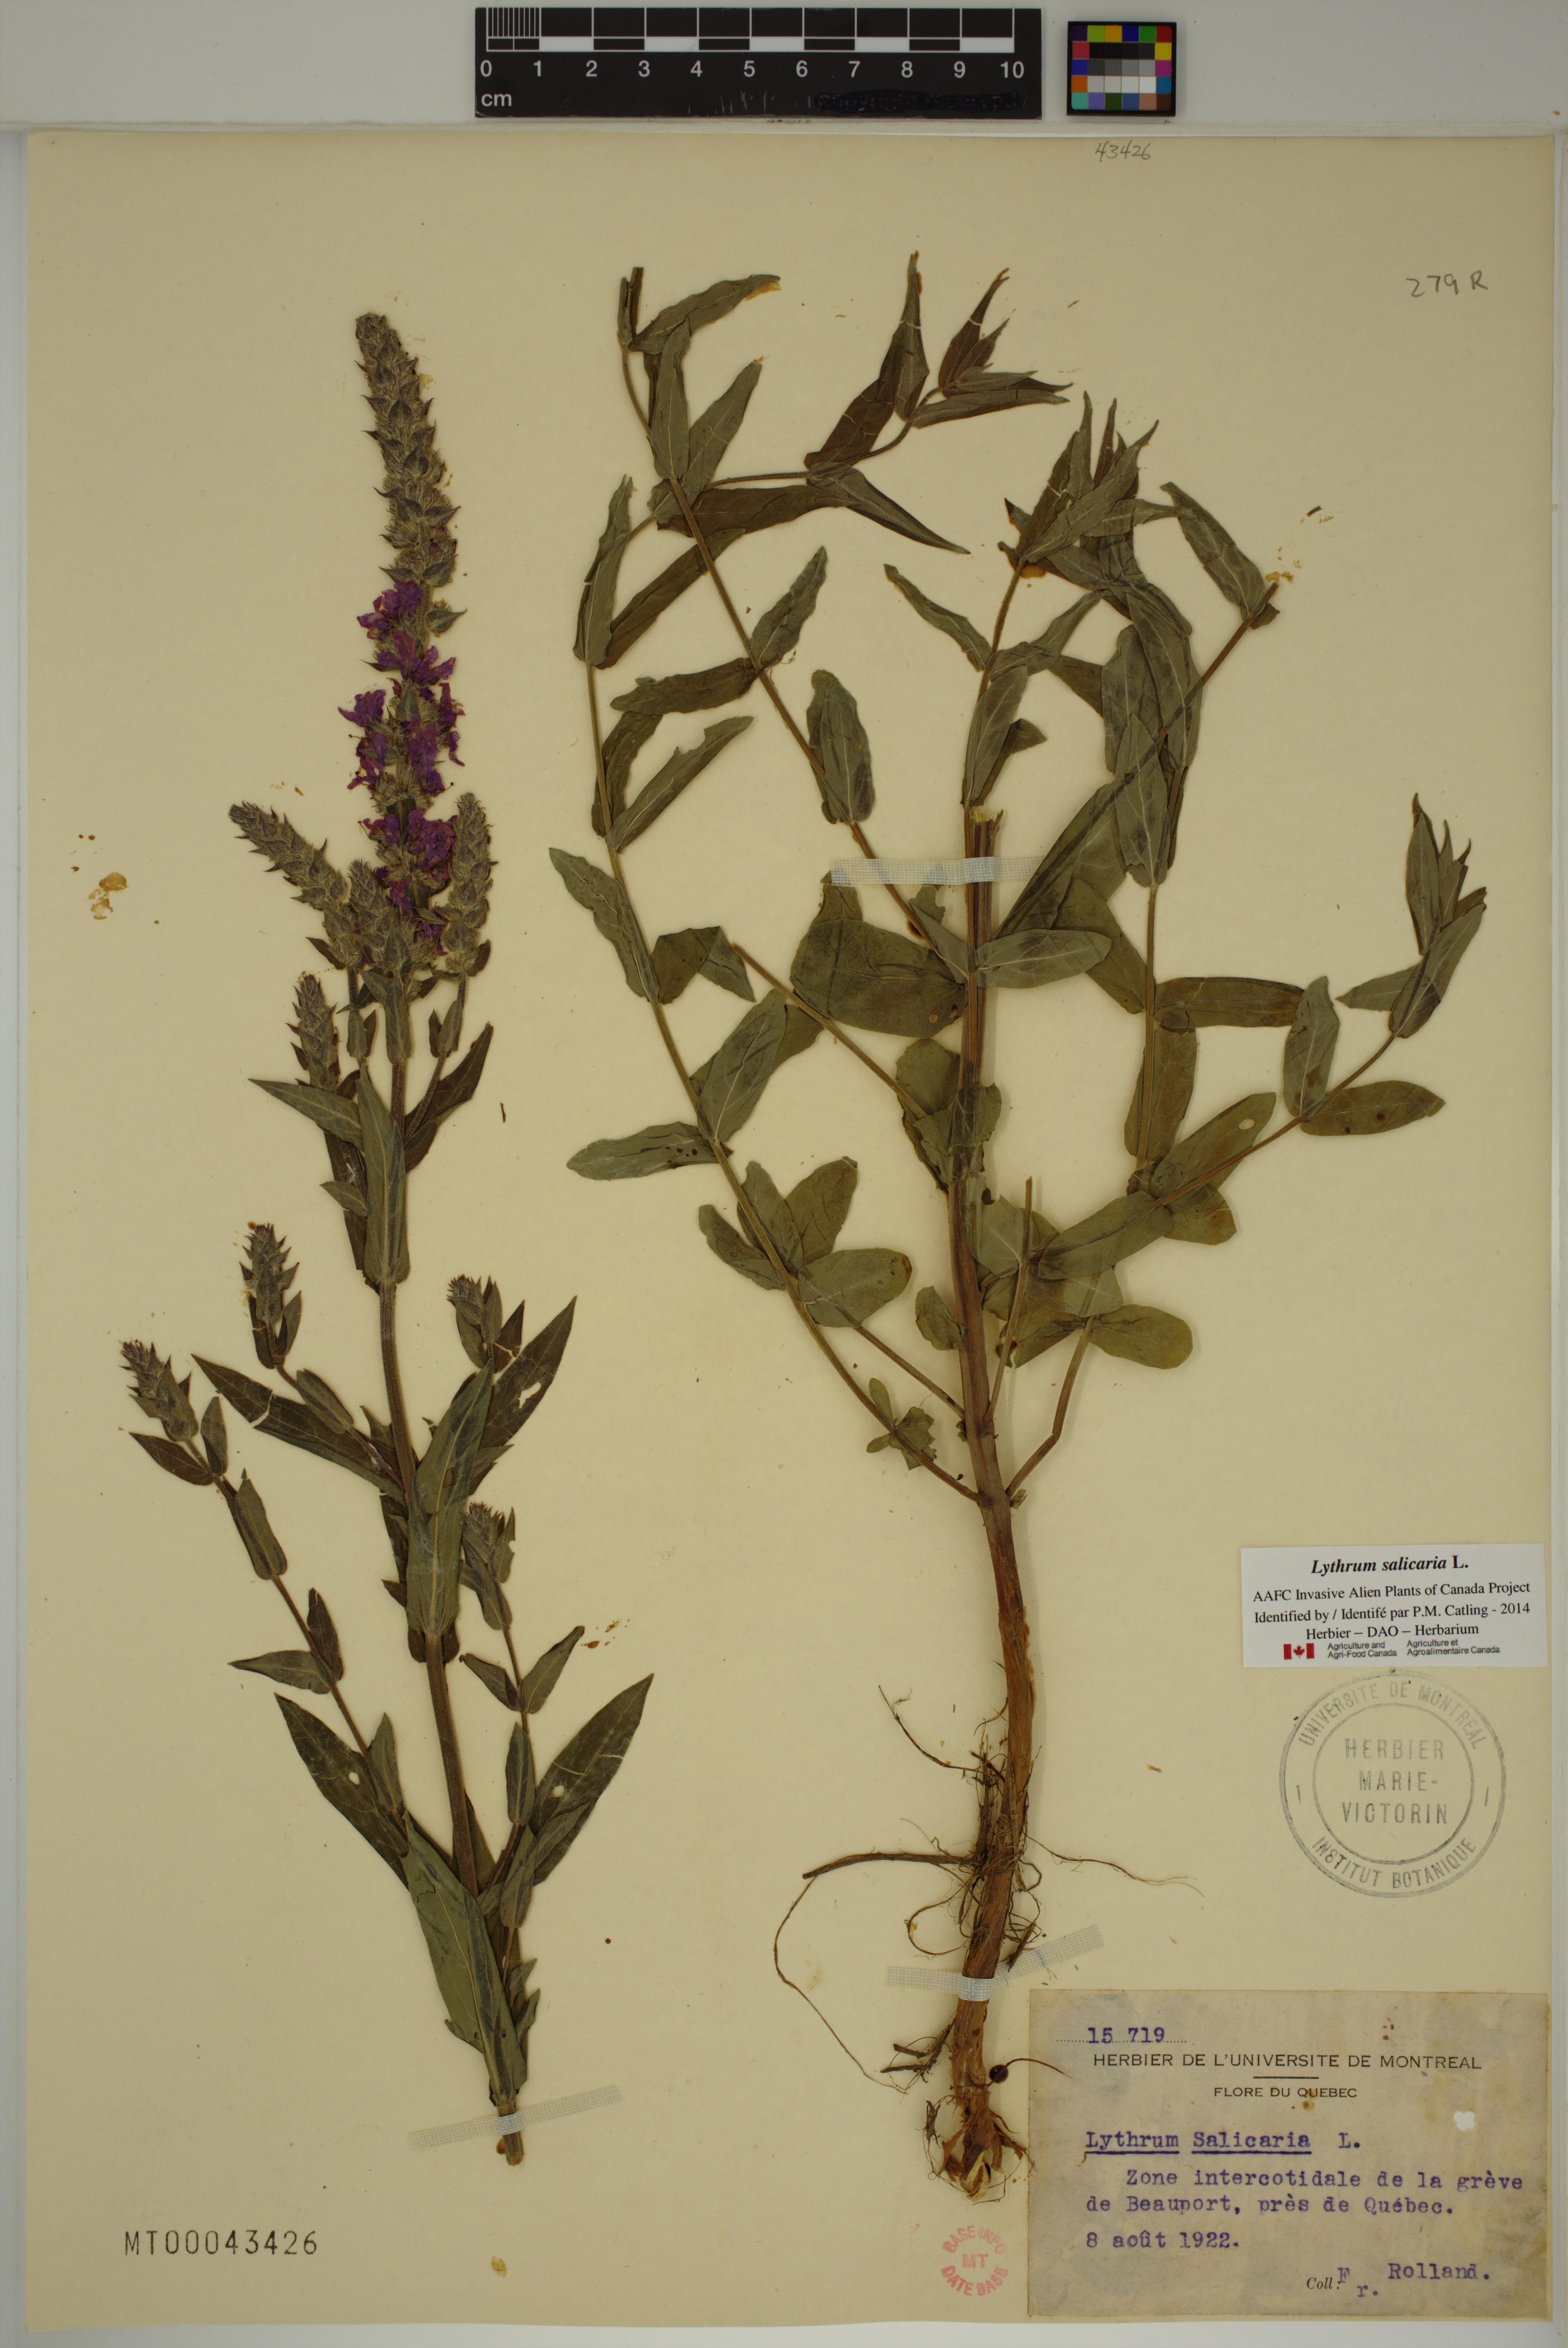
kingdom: Plantae
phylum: Tracheophyta
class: Magnoliopsida
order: Myrtales
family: Lythraceae
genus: Lythrum
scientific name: Lythrum salicaria
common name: Purple loosestrife
